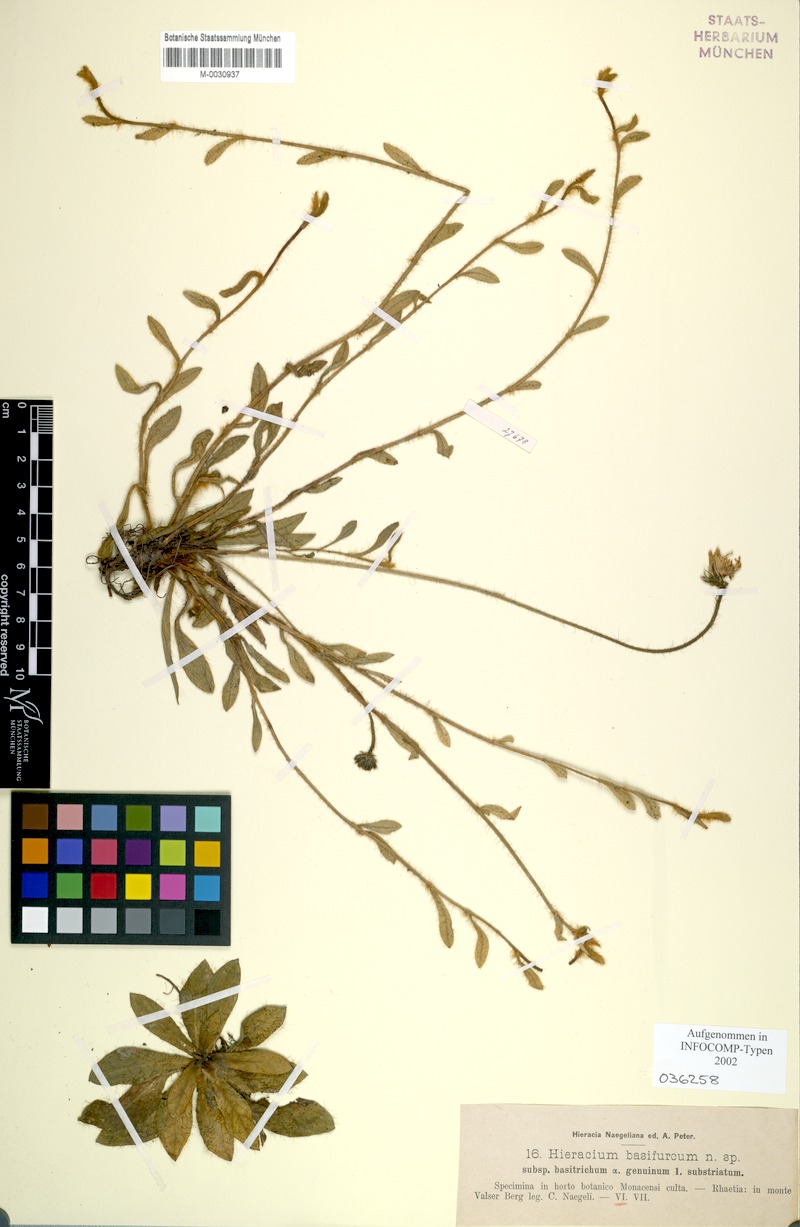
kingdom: Plantae
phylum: Tracheophyta
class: Magnoliopsida
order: Asterales
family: Asteraceae
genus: Pilosella
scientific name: Pilosella basifurca
